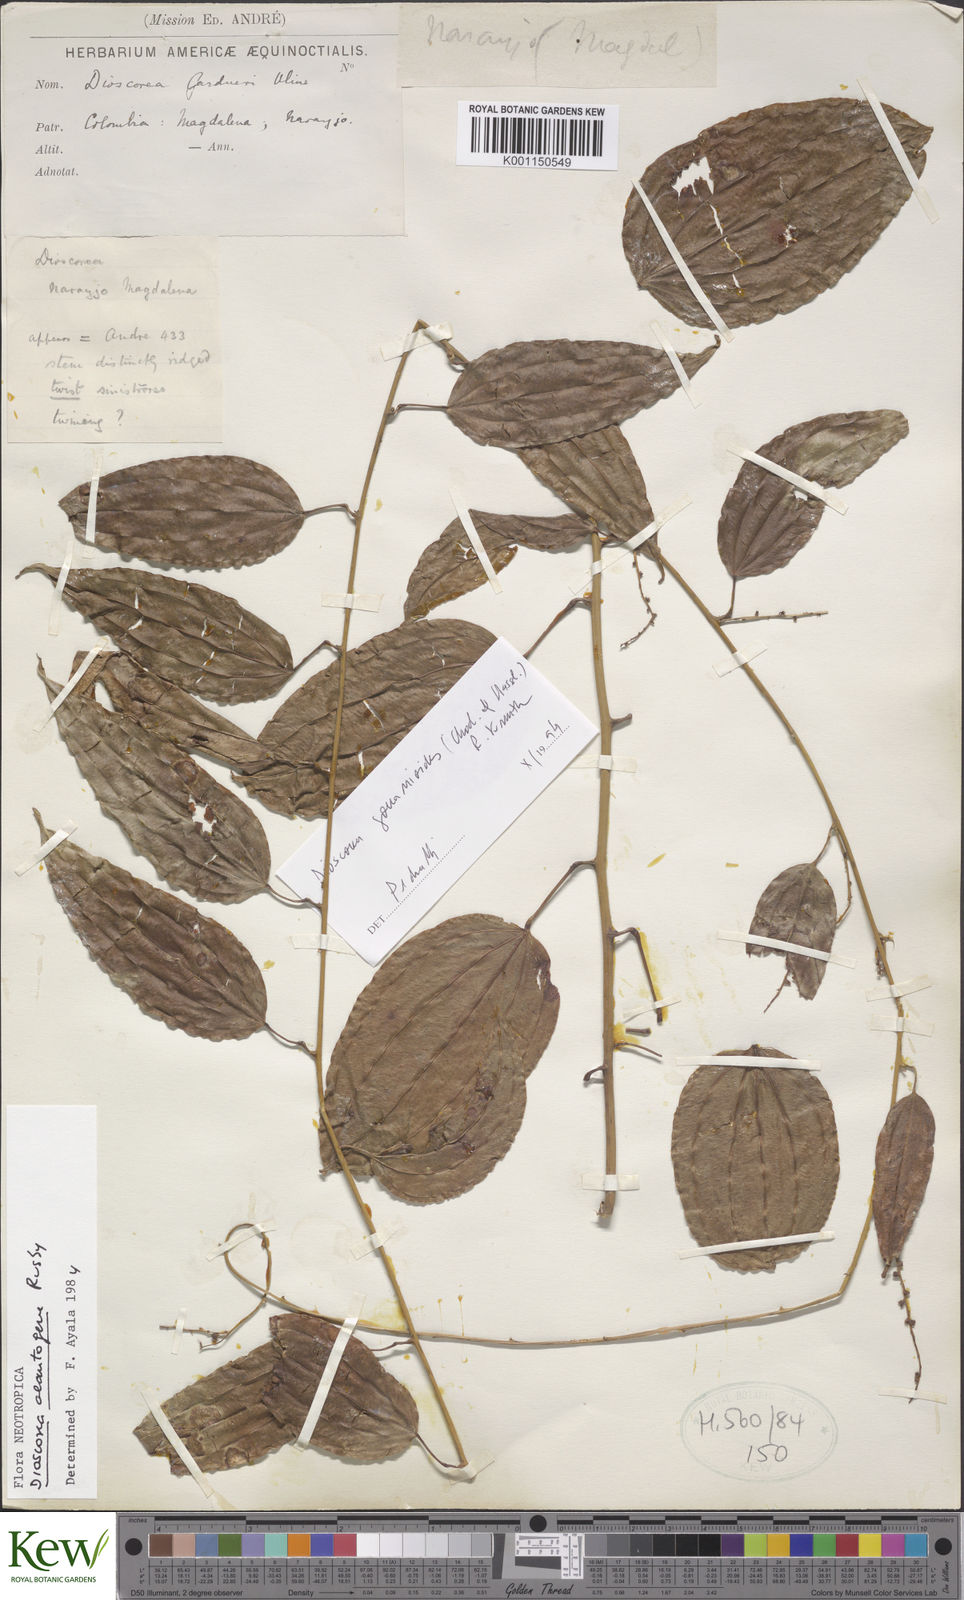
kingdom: Plantae
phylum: Tracheophyta
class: Liliopsida
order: Dioscoreales
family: Dioscoreaceae
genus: Dioscorea
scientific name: Dioscorea acanthogene
